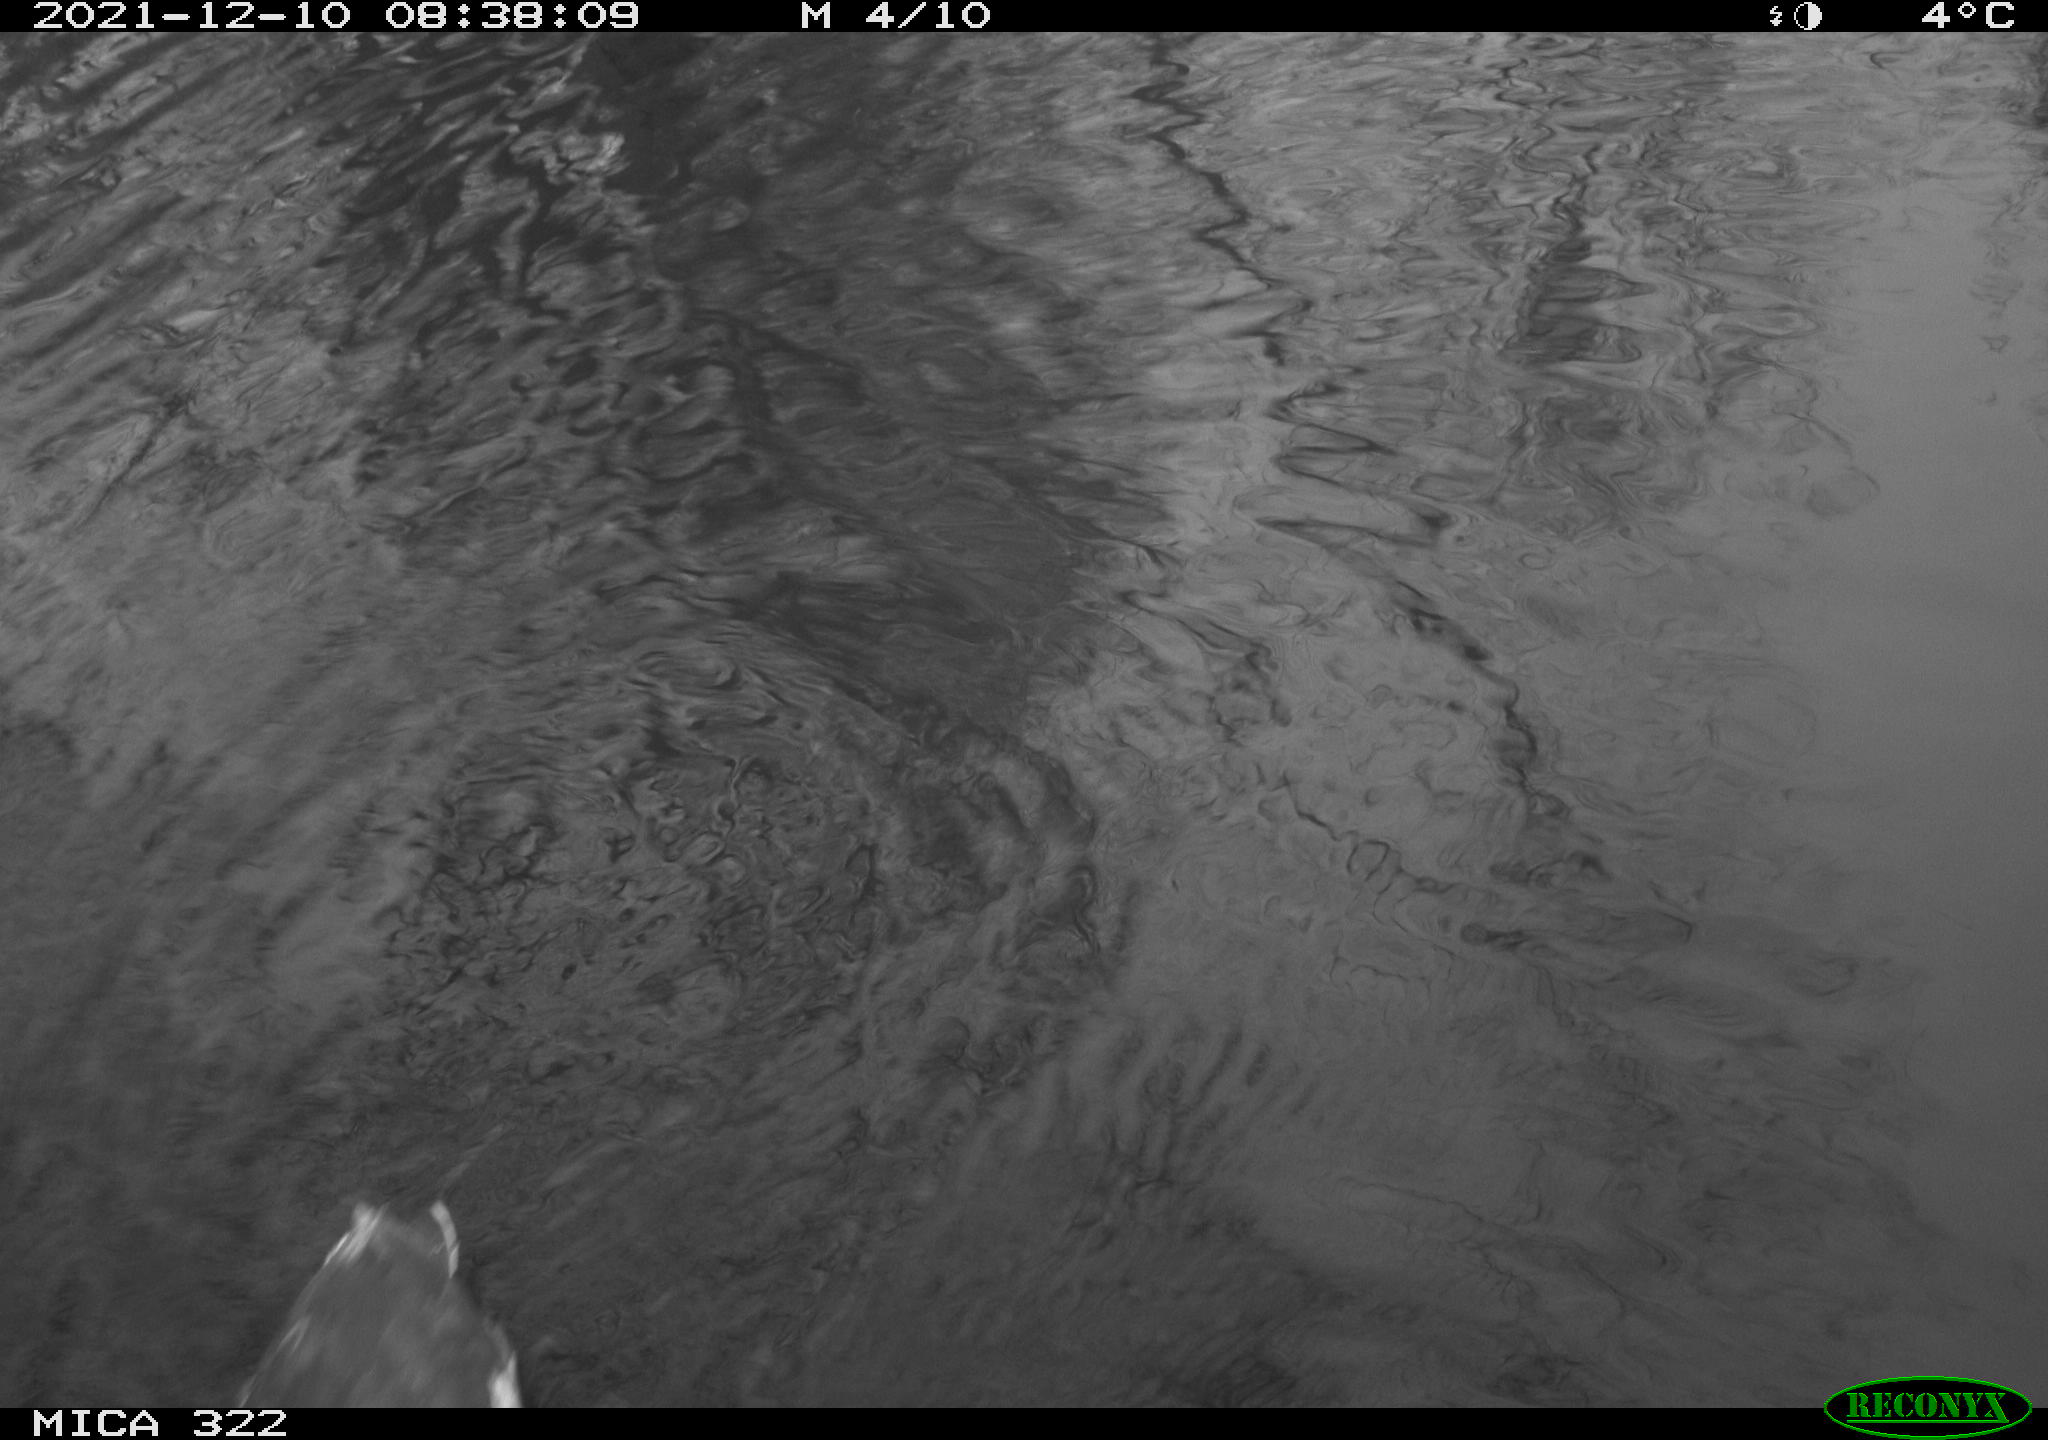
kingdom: Animalia
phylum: Chordata
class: Aves
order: Gruiformes
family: Rallidae
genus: Gallinula
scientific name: Gallinula chloropus
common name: Common moorhen
